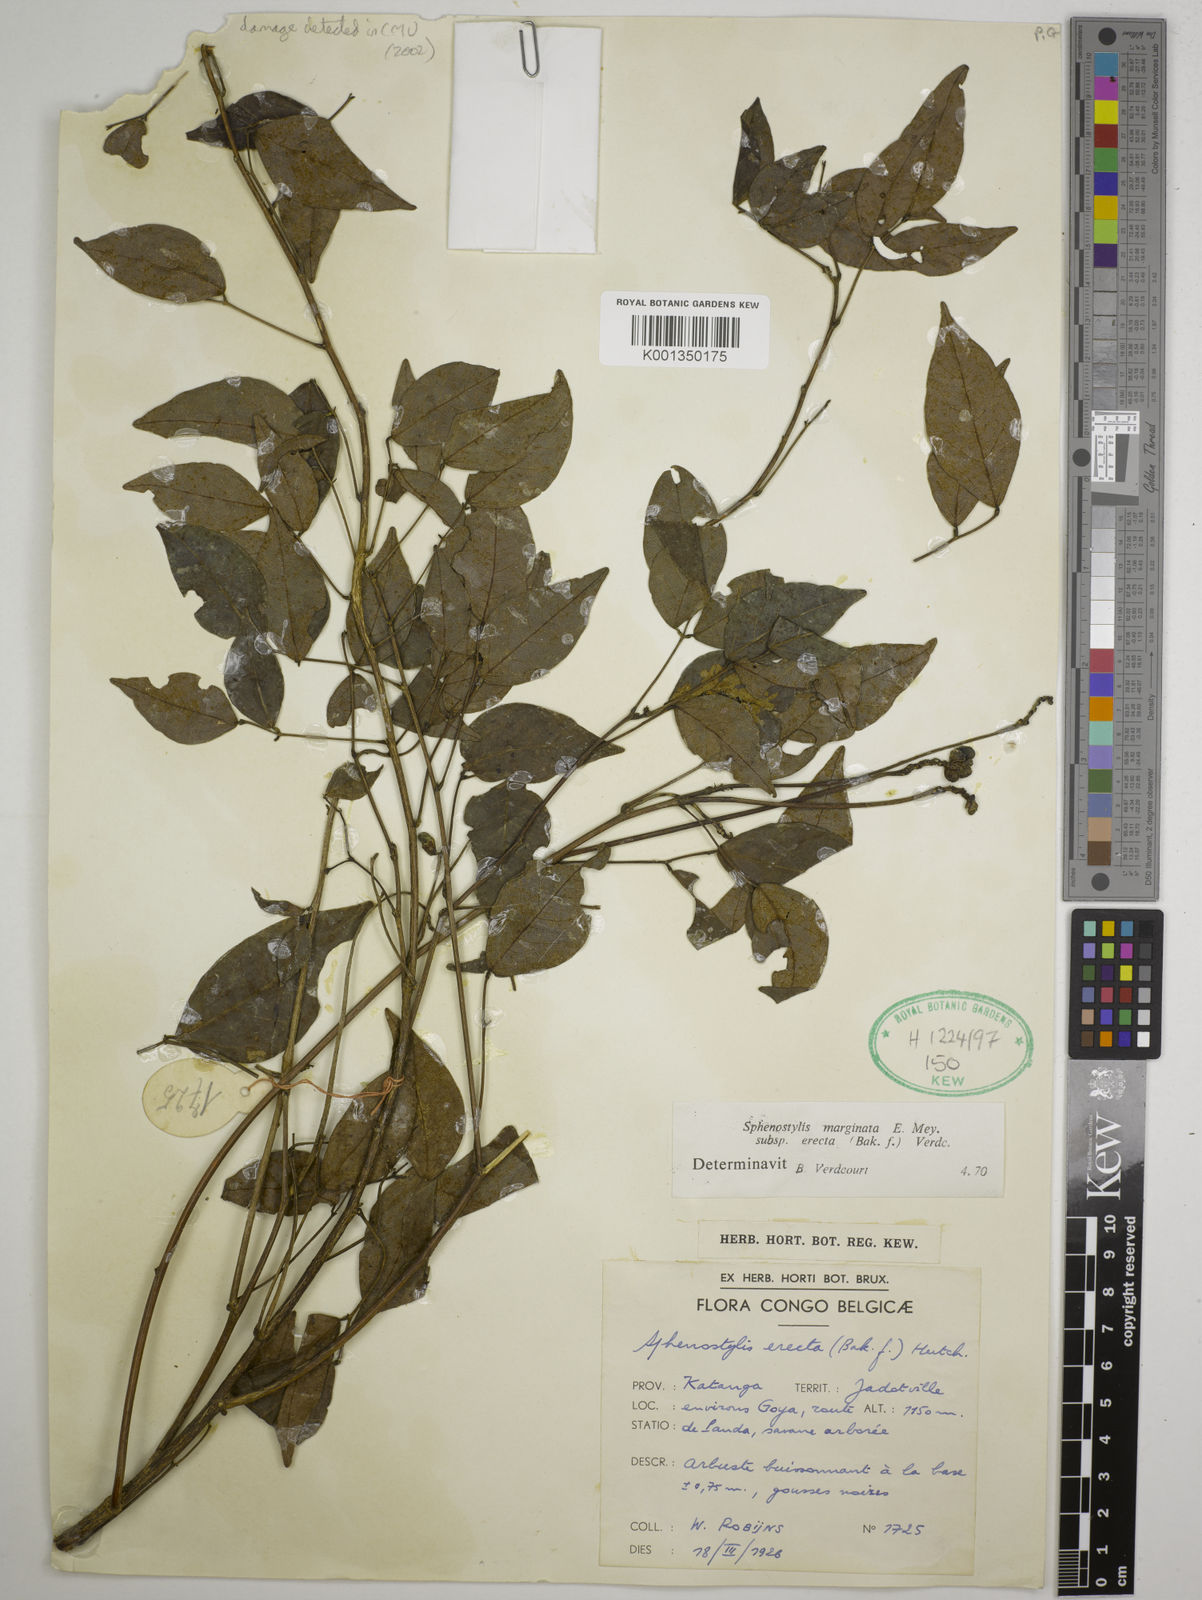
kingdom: Plantae
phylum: Tracheophyta
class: Magnoliopsida
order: Fabales
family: Fabaceae
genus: Sphenostylis
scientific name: Sphenostylis erecta
